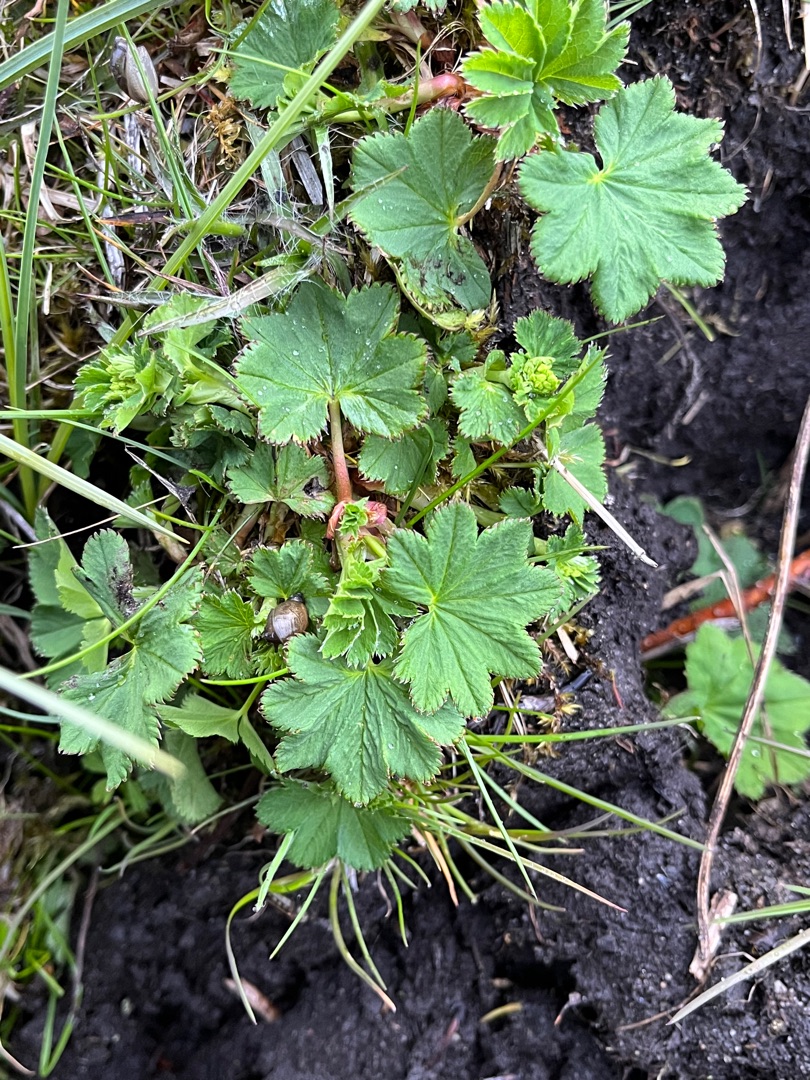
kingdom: Plantae
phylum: Tracheophyta
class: Magnoliopsida
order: Rosales
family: Rosaceae
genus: Alchemilla
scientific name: Alchemilla glabra
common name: Glat løvefod
